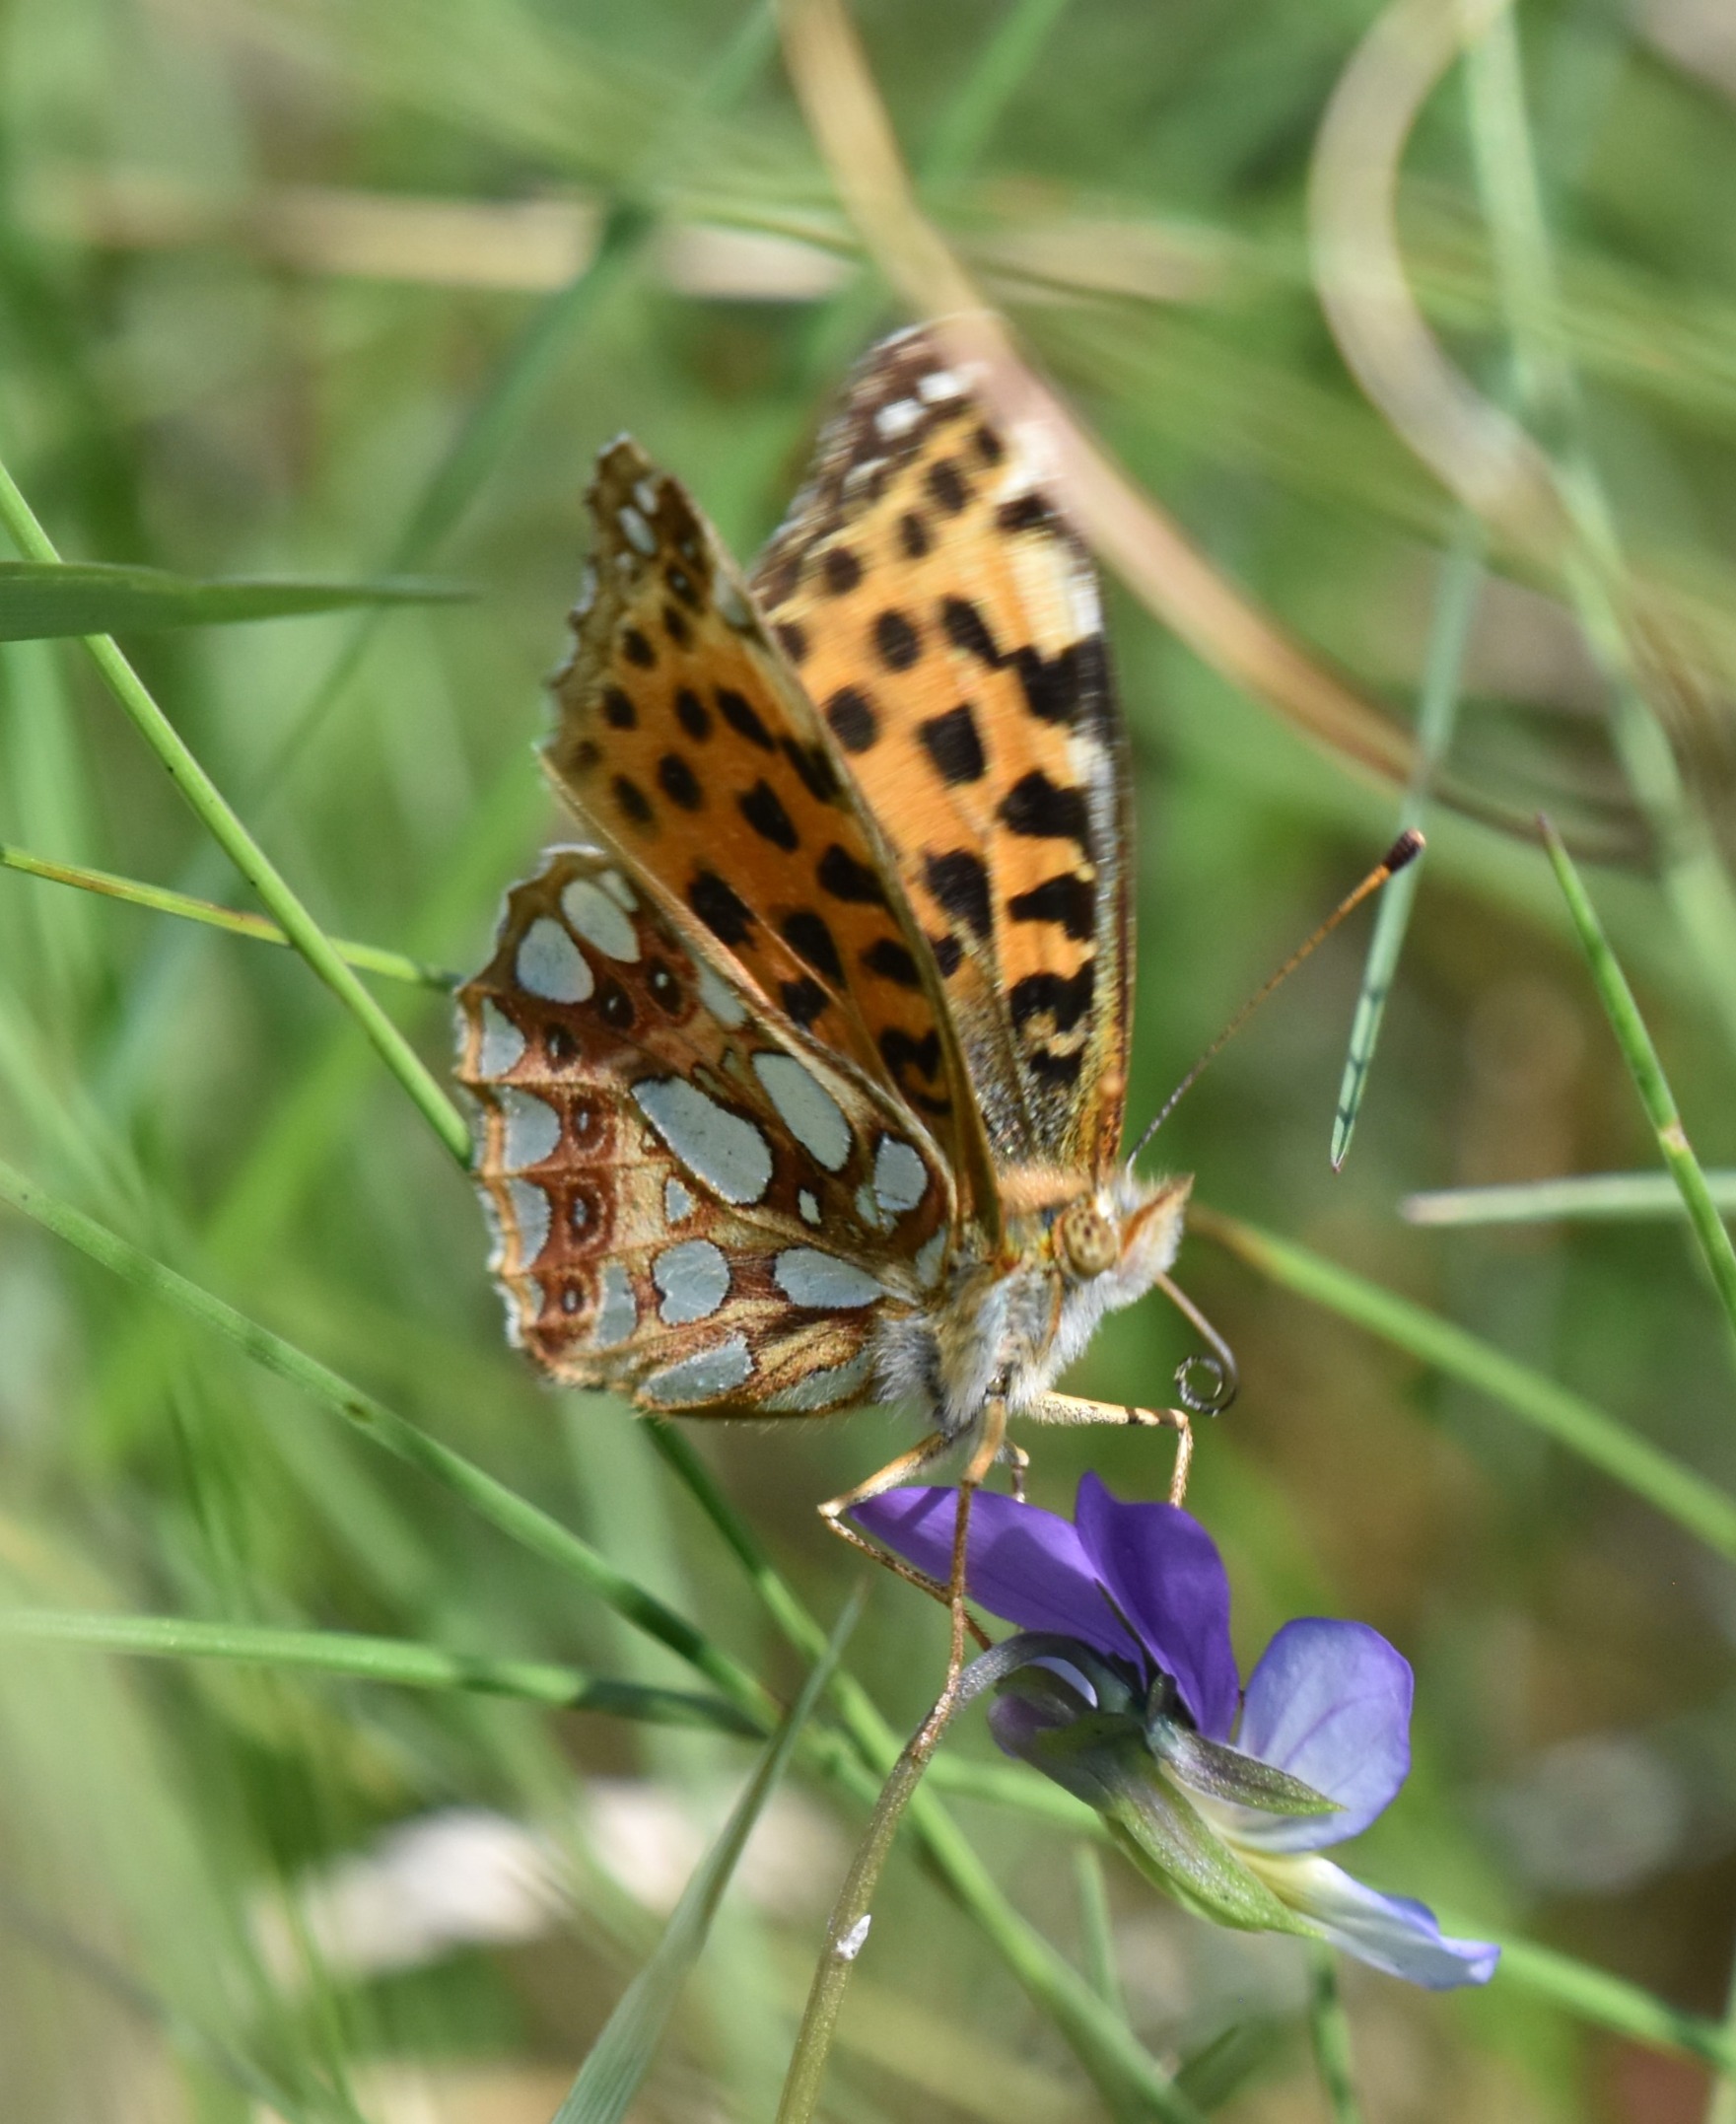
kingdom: Animalia
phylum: Arthropoda
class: Insecta
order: Lepidoptera
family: Nymphalidae
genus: Issoria
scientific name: Issoria lathonia
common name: Storplettet perlemorsommerfugl
